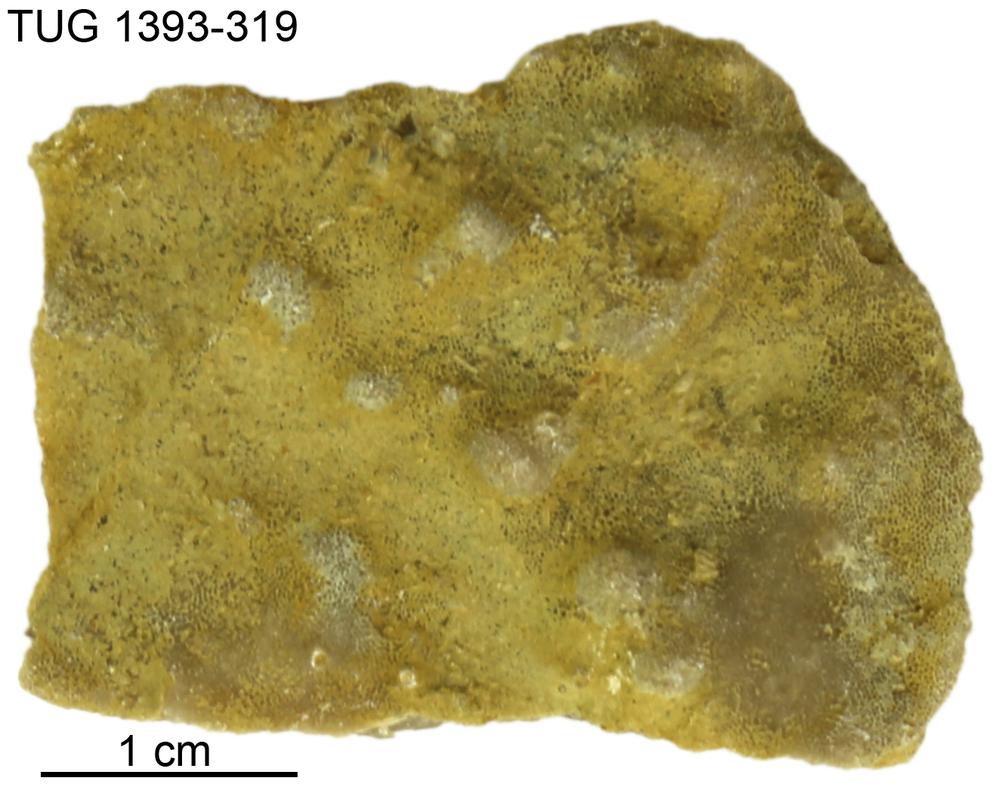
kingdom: Animalia
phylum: Bryozoa
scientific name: Bryozoa
